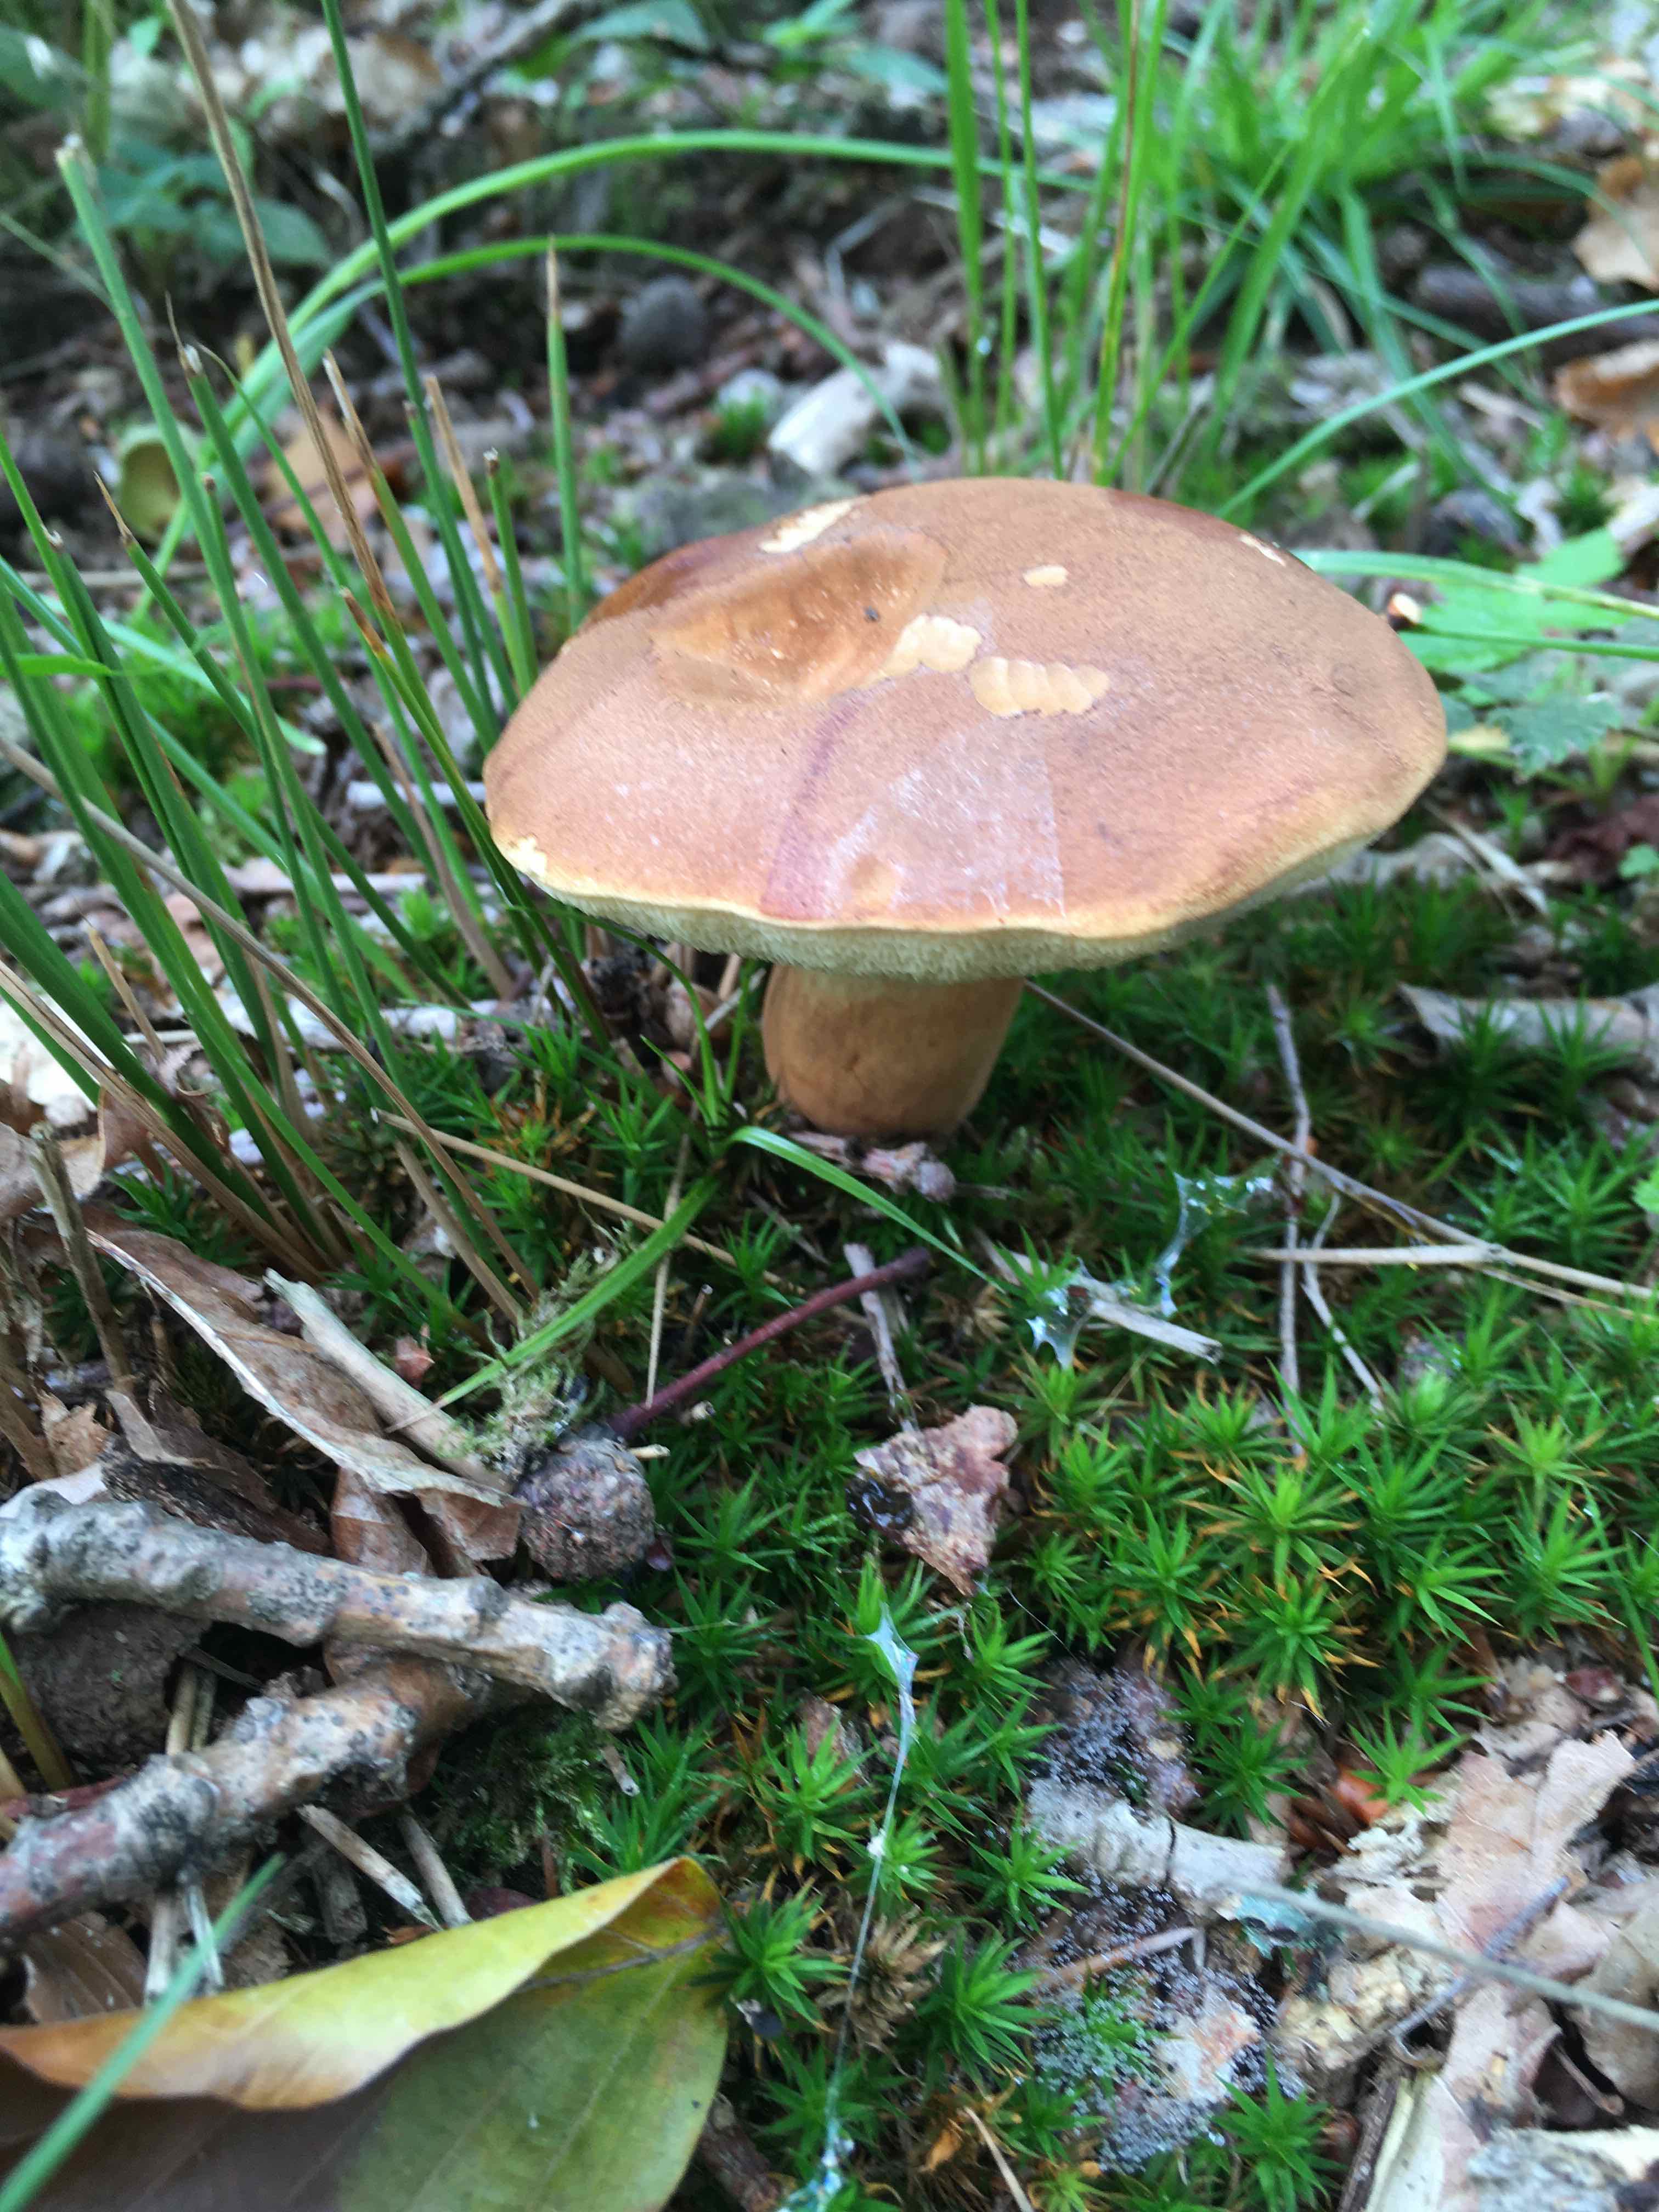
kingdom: Fungi
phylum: Basidiomycota
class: Agaricomycetes
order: Boletales
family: Boletaceae
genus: Imleria
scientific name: Imleria badia
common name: brunstokket rørhat
